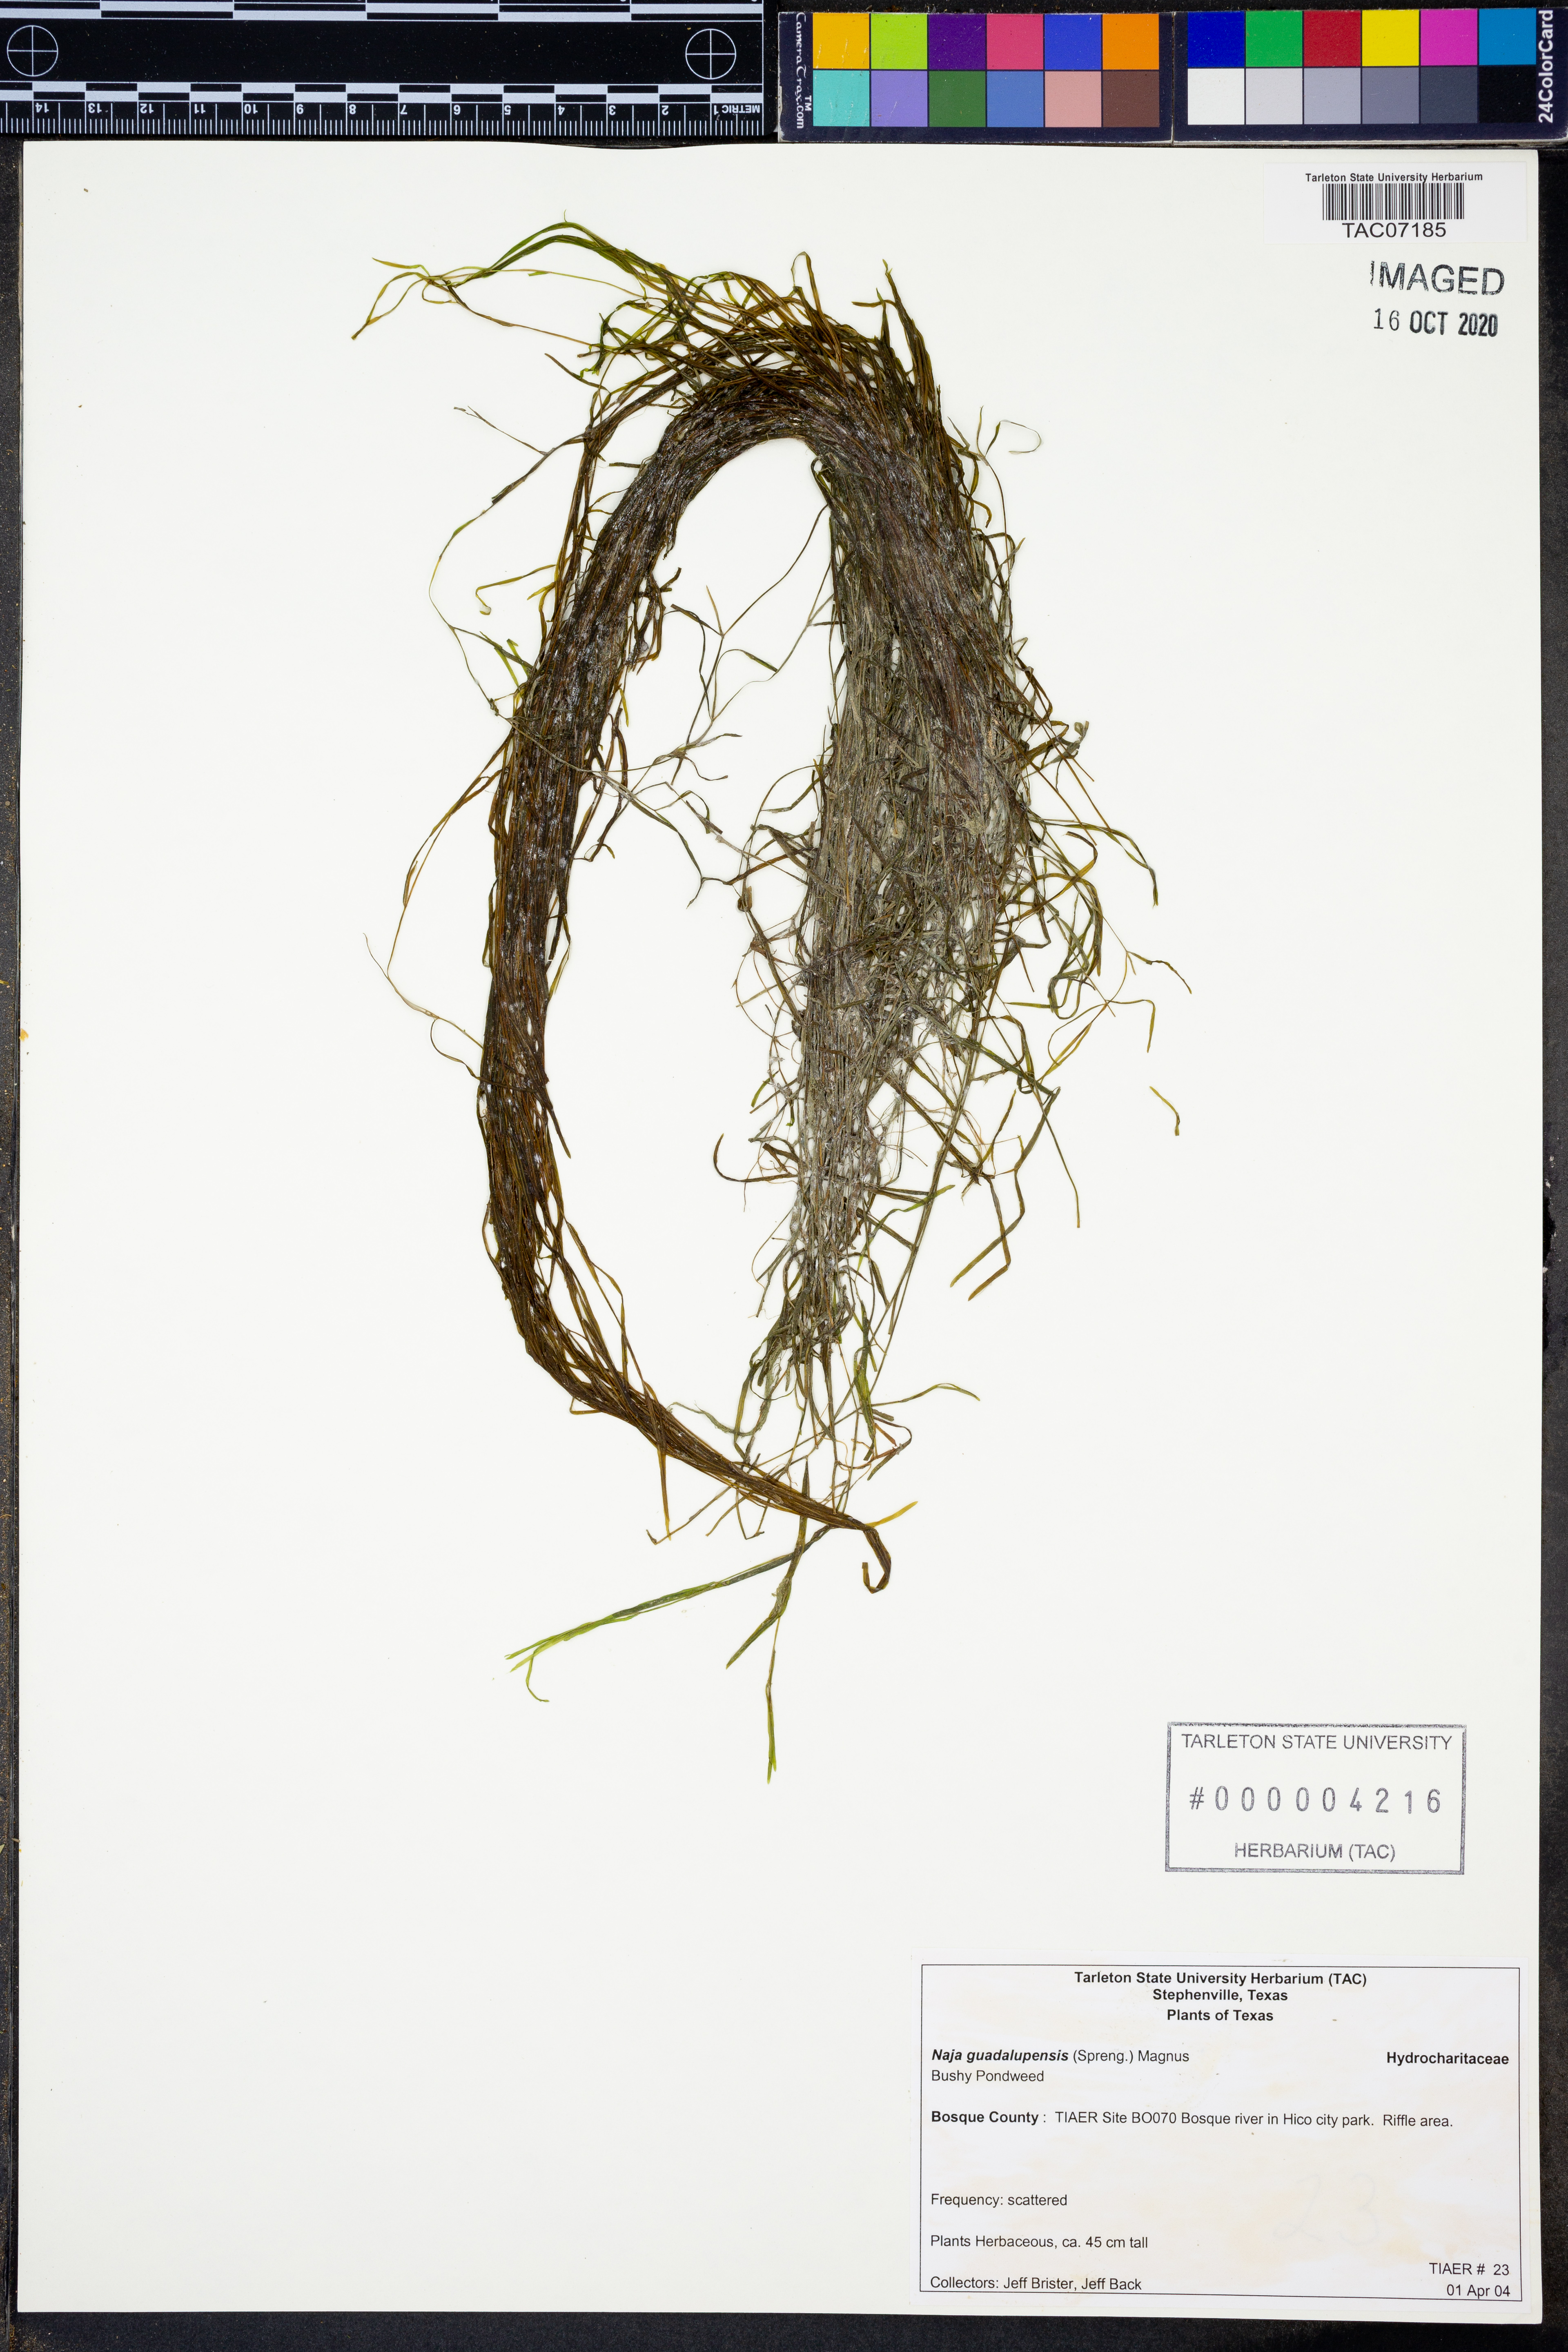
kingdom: Plantae
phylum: Tracheophyta
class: Liliopsida
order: Alismatales
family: Hydrocharitaceae
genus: Najas
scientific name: Najas guadalupensis
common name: Southern naiad
